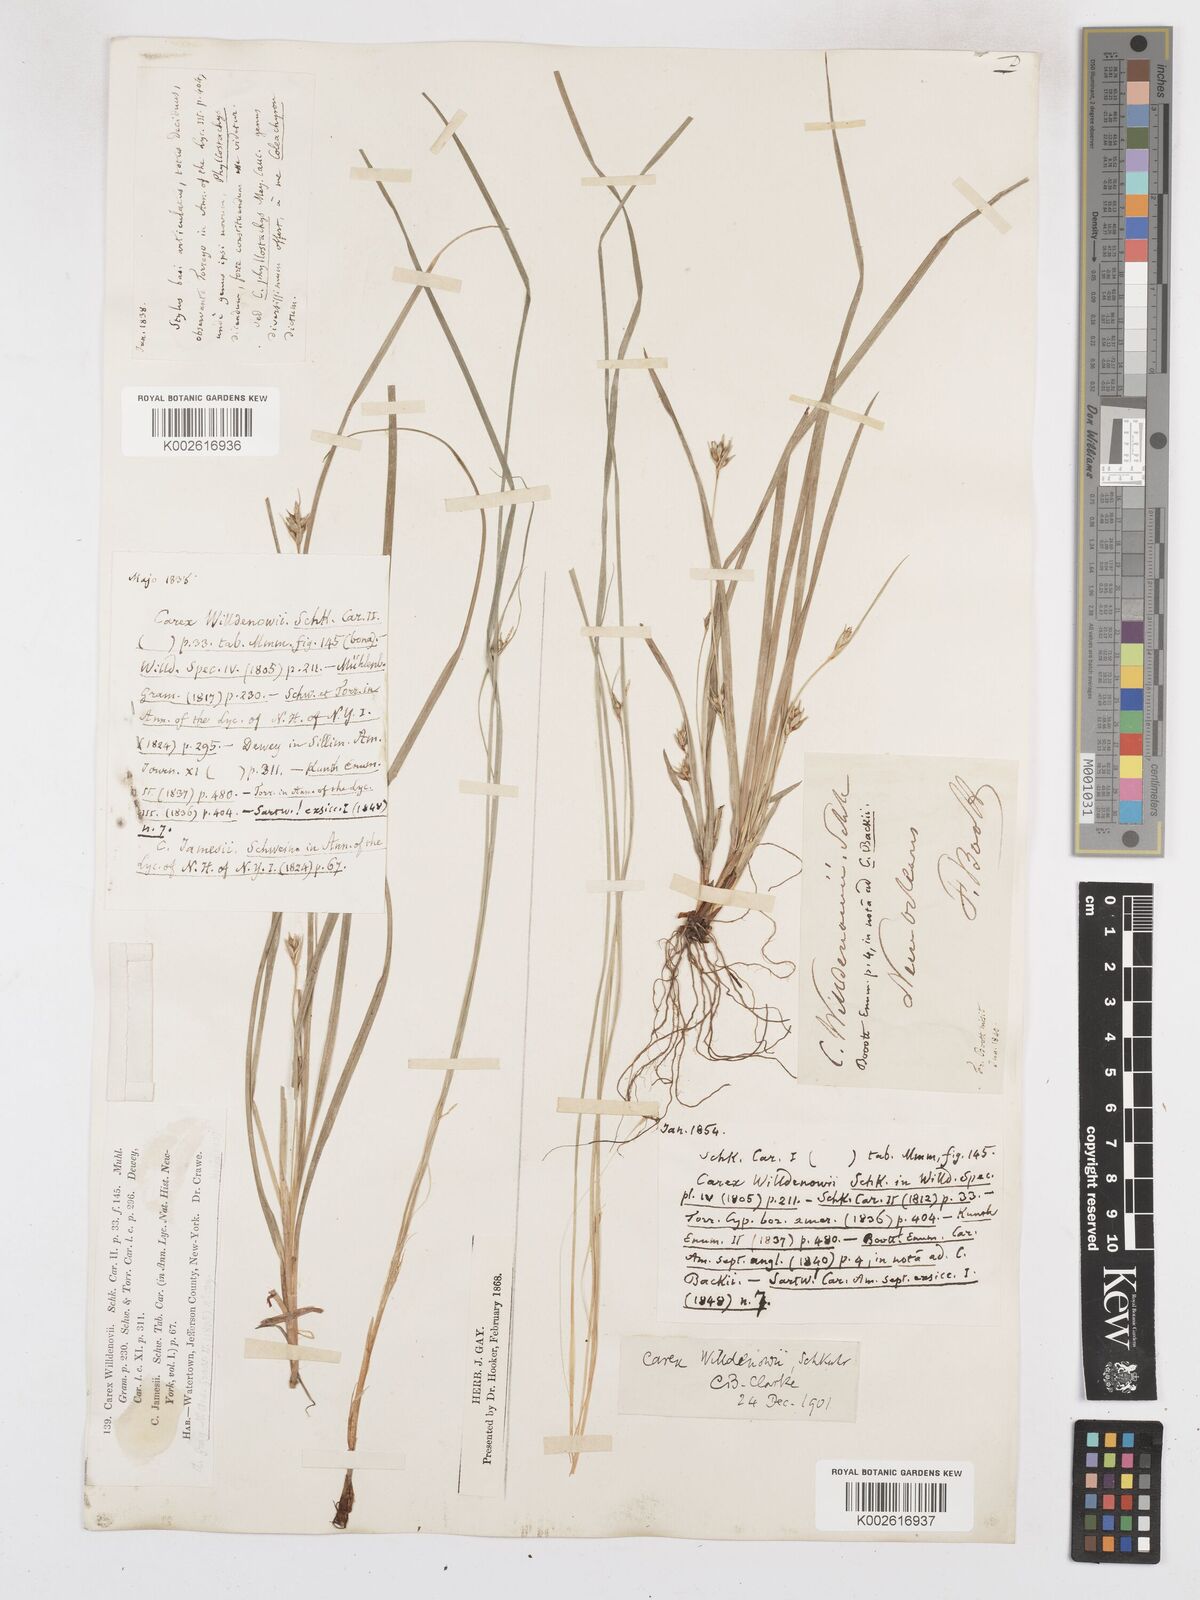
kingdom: Plantae
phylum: Tracheophyta
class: Liliopsida
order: Poales
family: Cyperaceae
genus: Carex
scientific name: Carex willdenowii
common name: Willdenow's sedge
